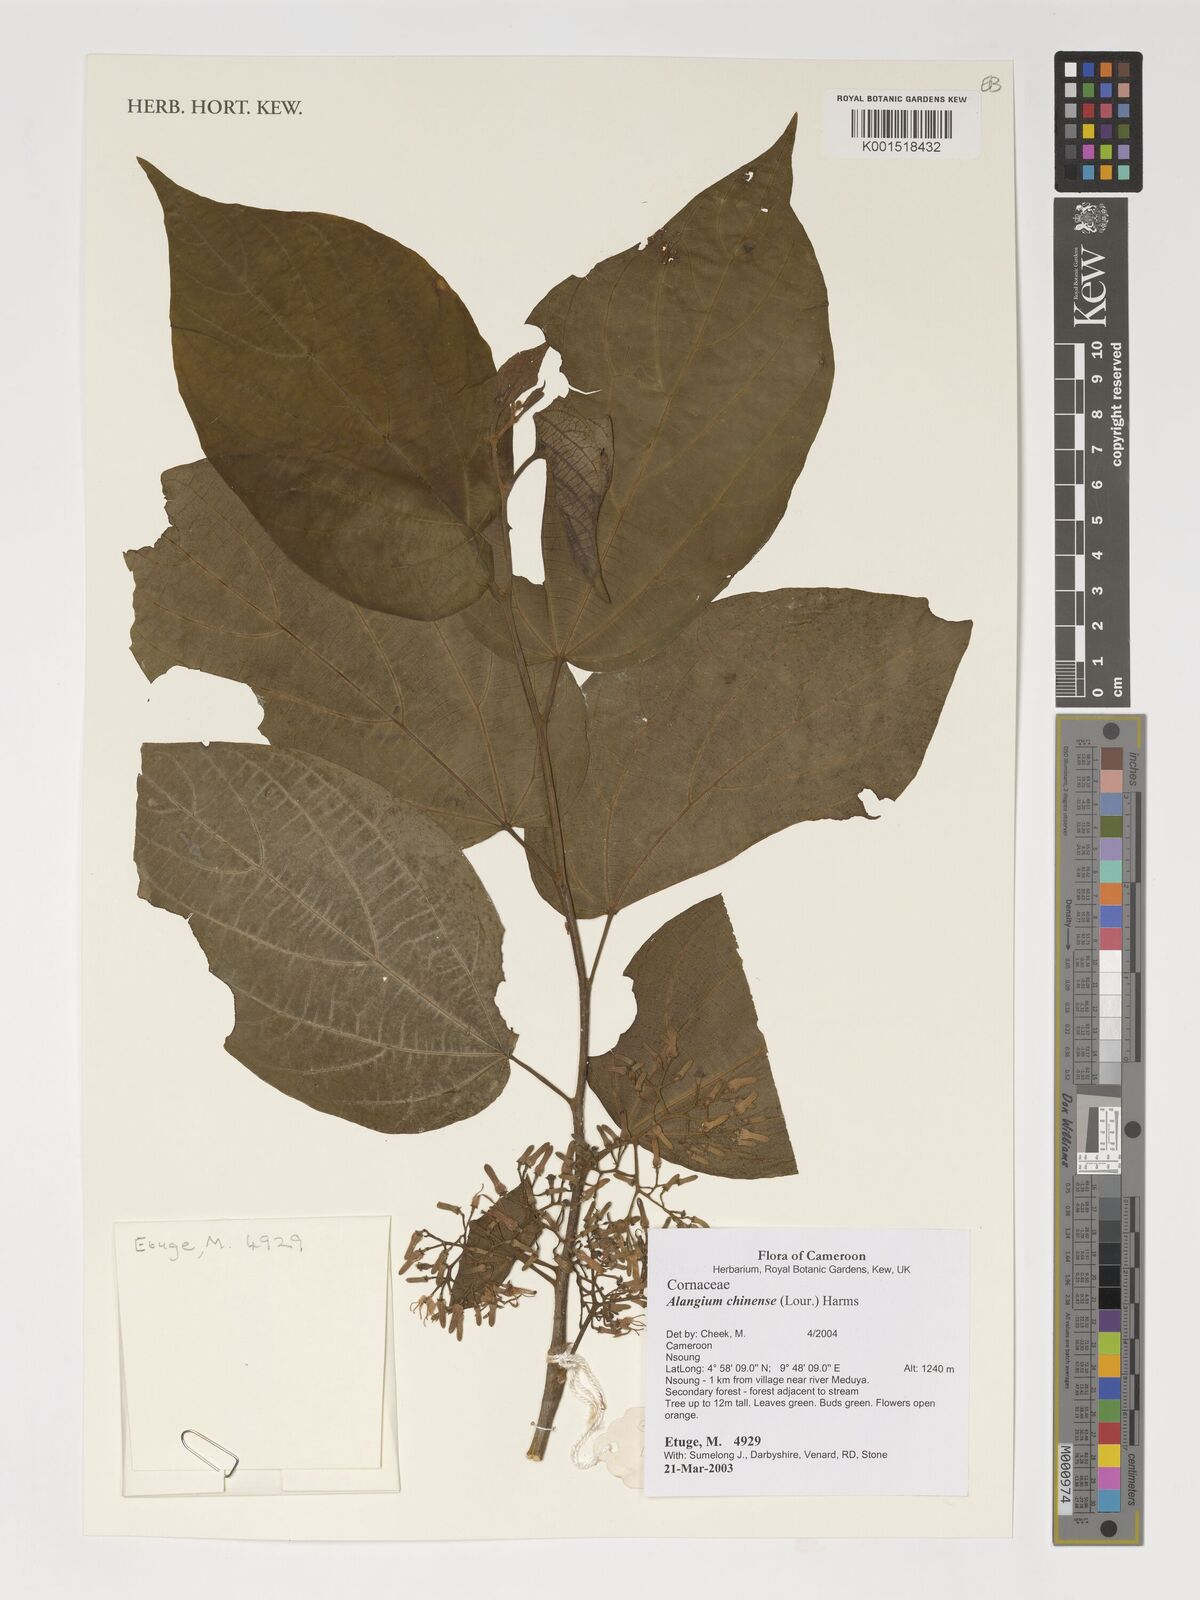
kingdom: Plantae
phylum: Tracheophyta
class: Magnoliopsida
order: Cornales
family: Cornaceae
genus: Alangium
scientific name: Alangium chinense
